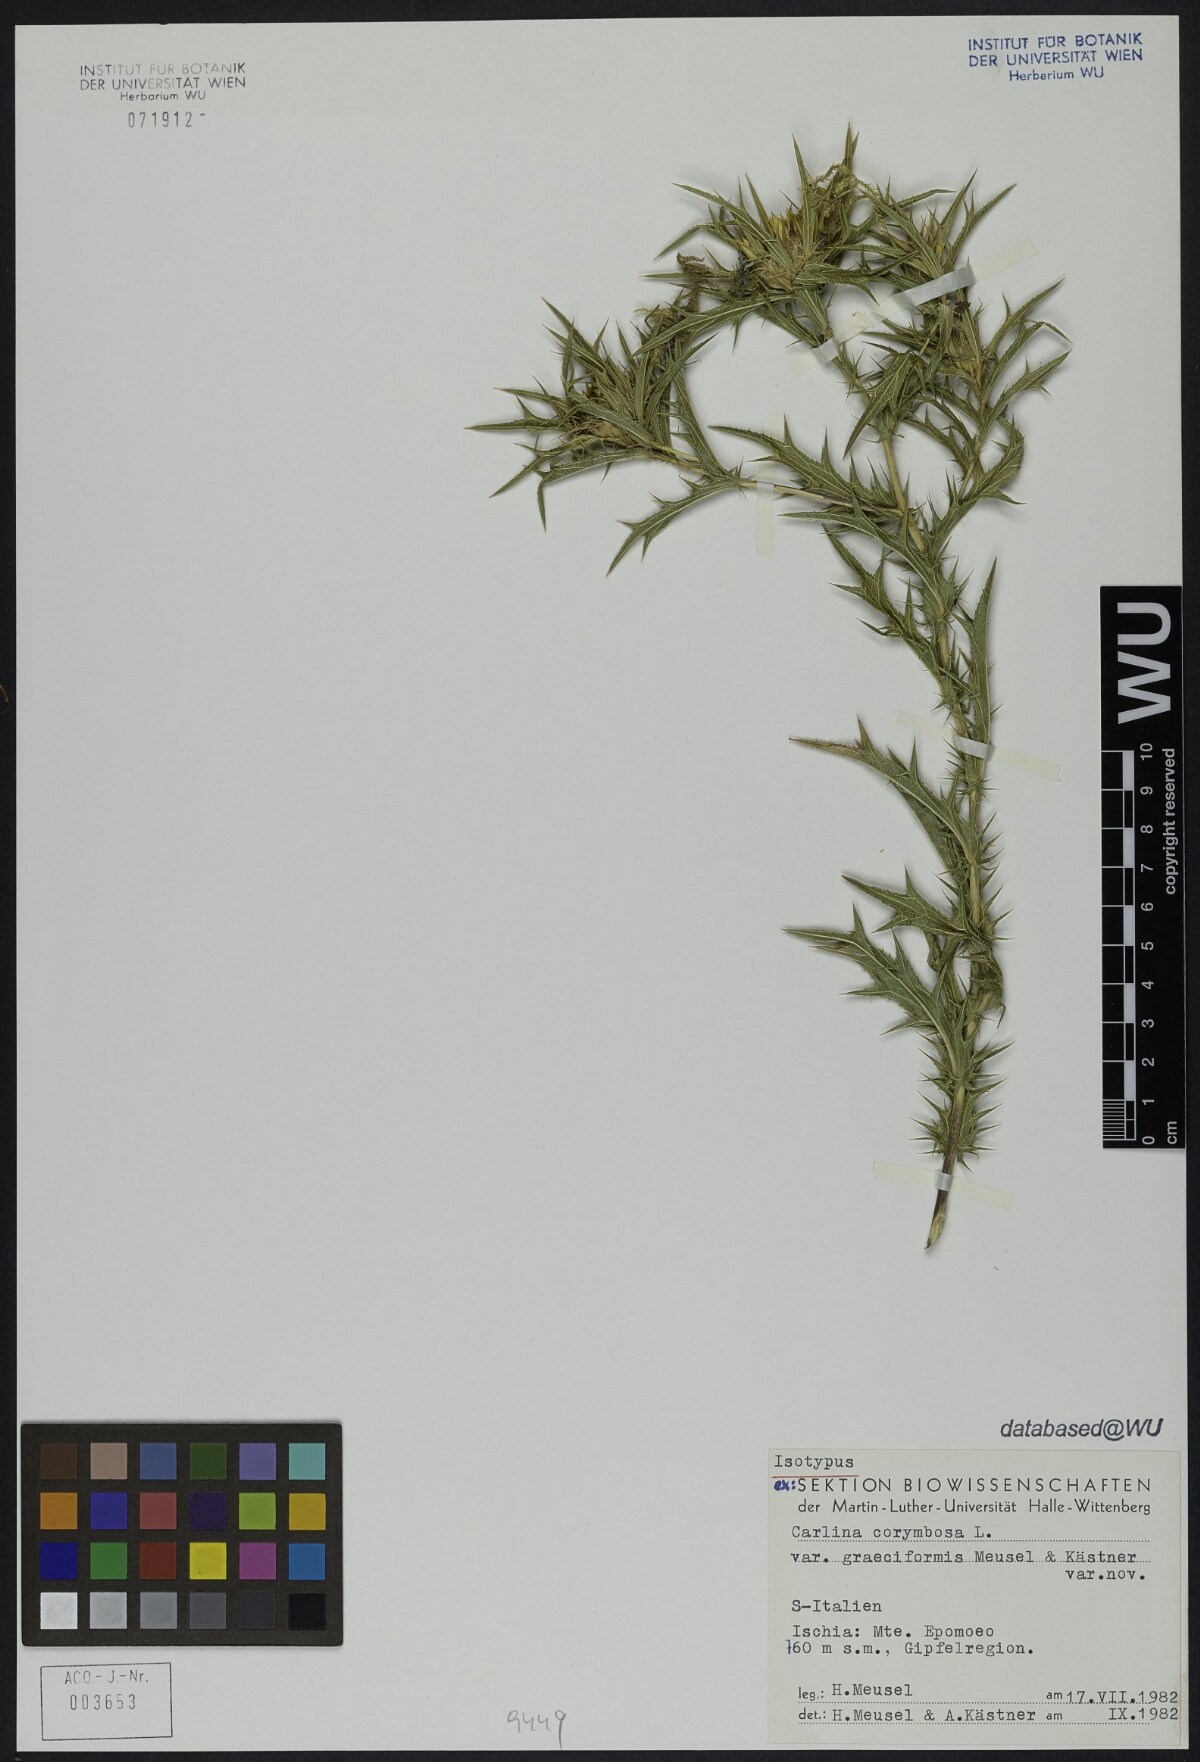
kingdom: Plantae
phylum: Tracheophyta
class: Magnoliopsida
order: Asterales
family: Asteraceae
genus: Carlina
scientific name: Carlina corymbosa
